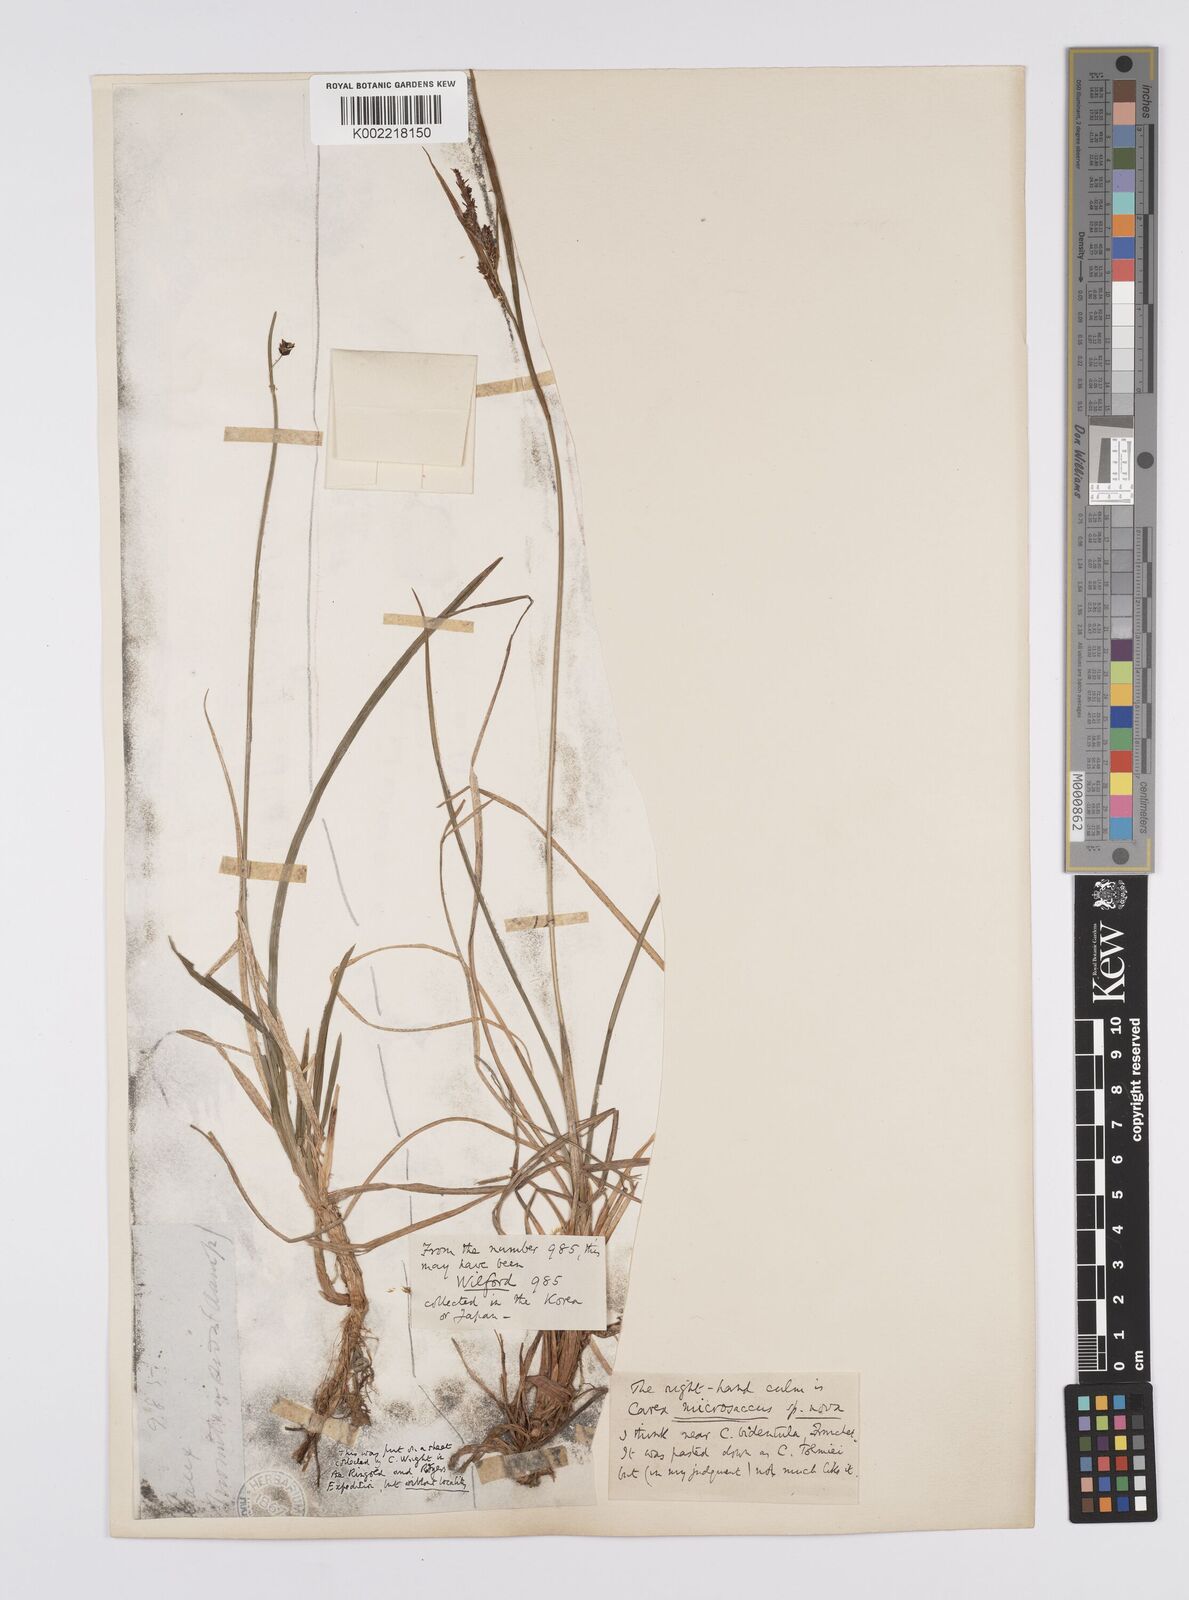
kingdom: Plantae
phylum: Tracheophyta
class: Liliopsida
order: Poales
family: Cyperaceae
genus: Carex
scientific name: Carex microsaccus
